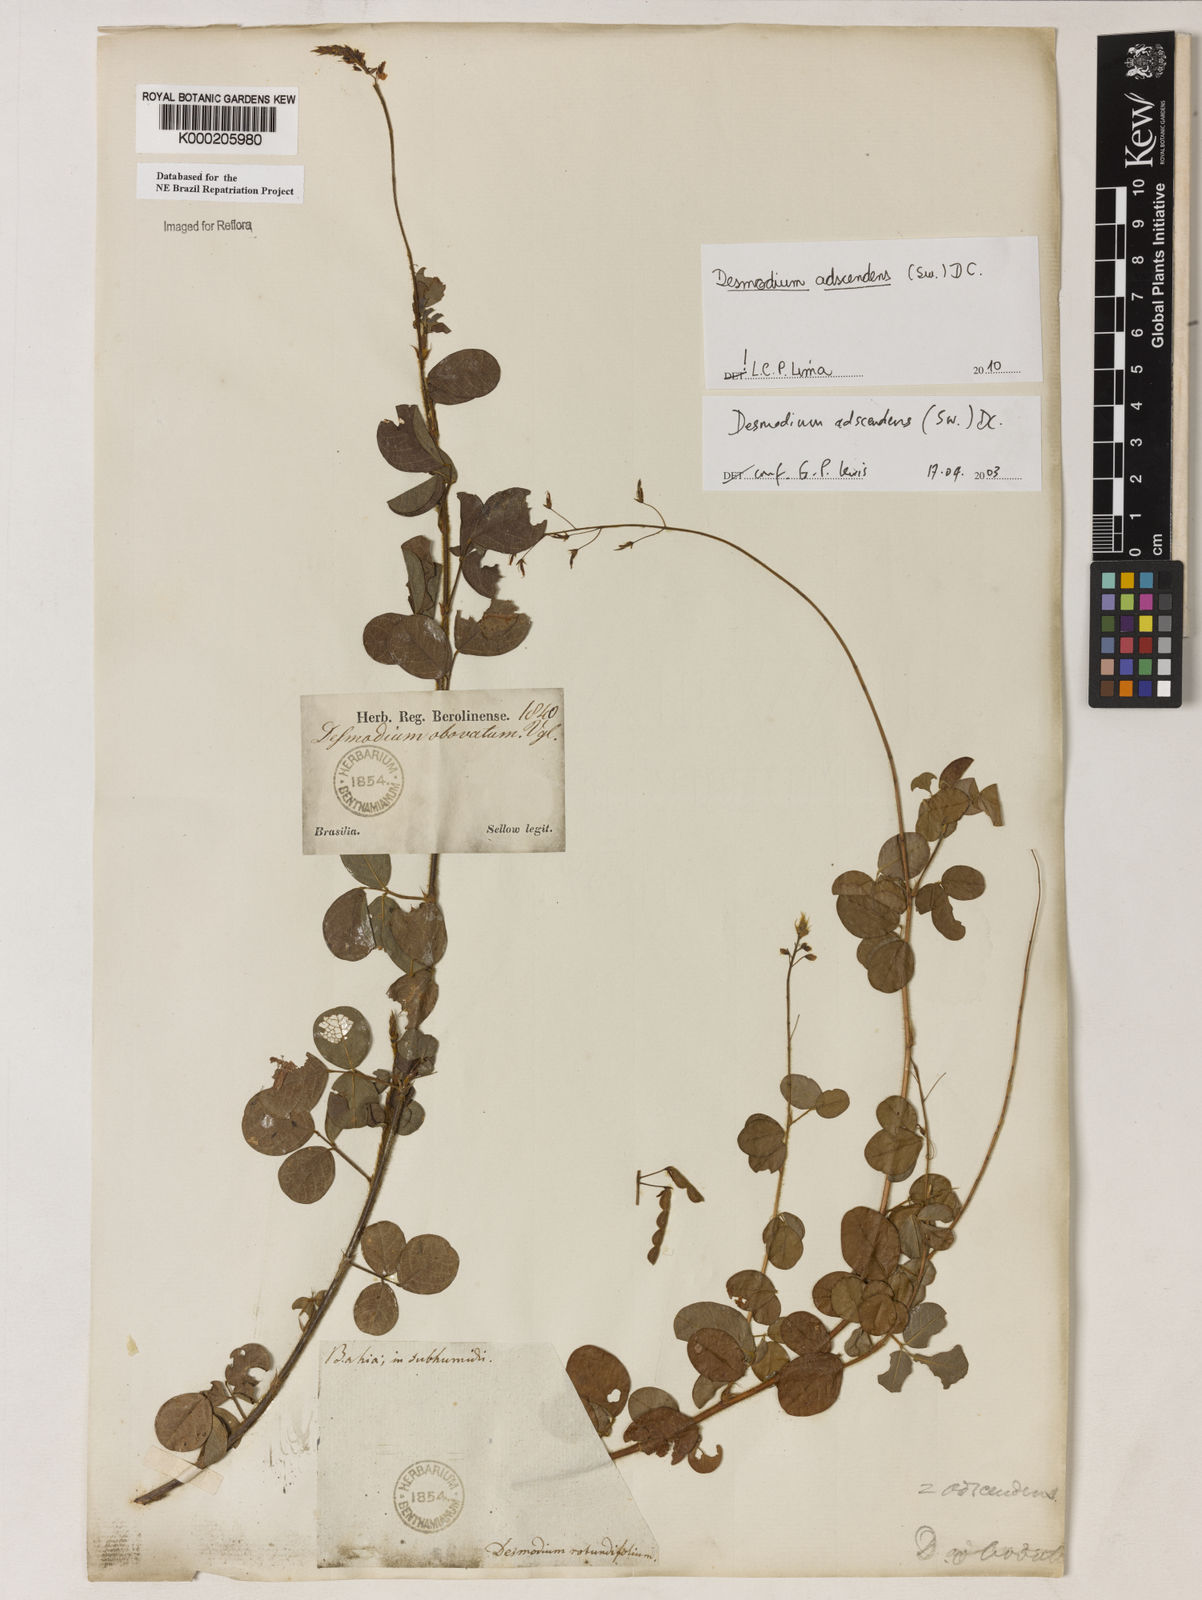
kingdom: Plantae
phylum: Tracheophyta
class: Magnoliopsida
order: Fabales
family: Fabaceae
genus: Grona
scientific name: Grona adscendens
